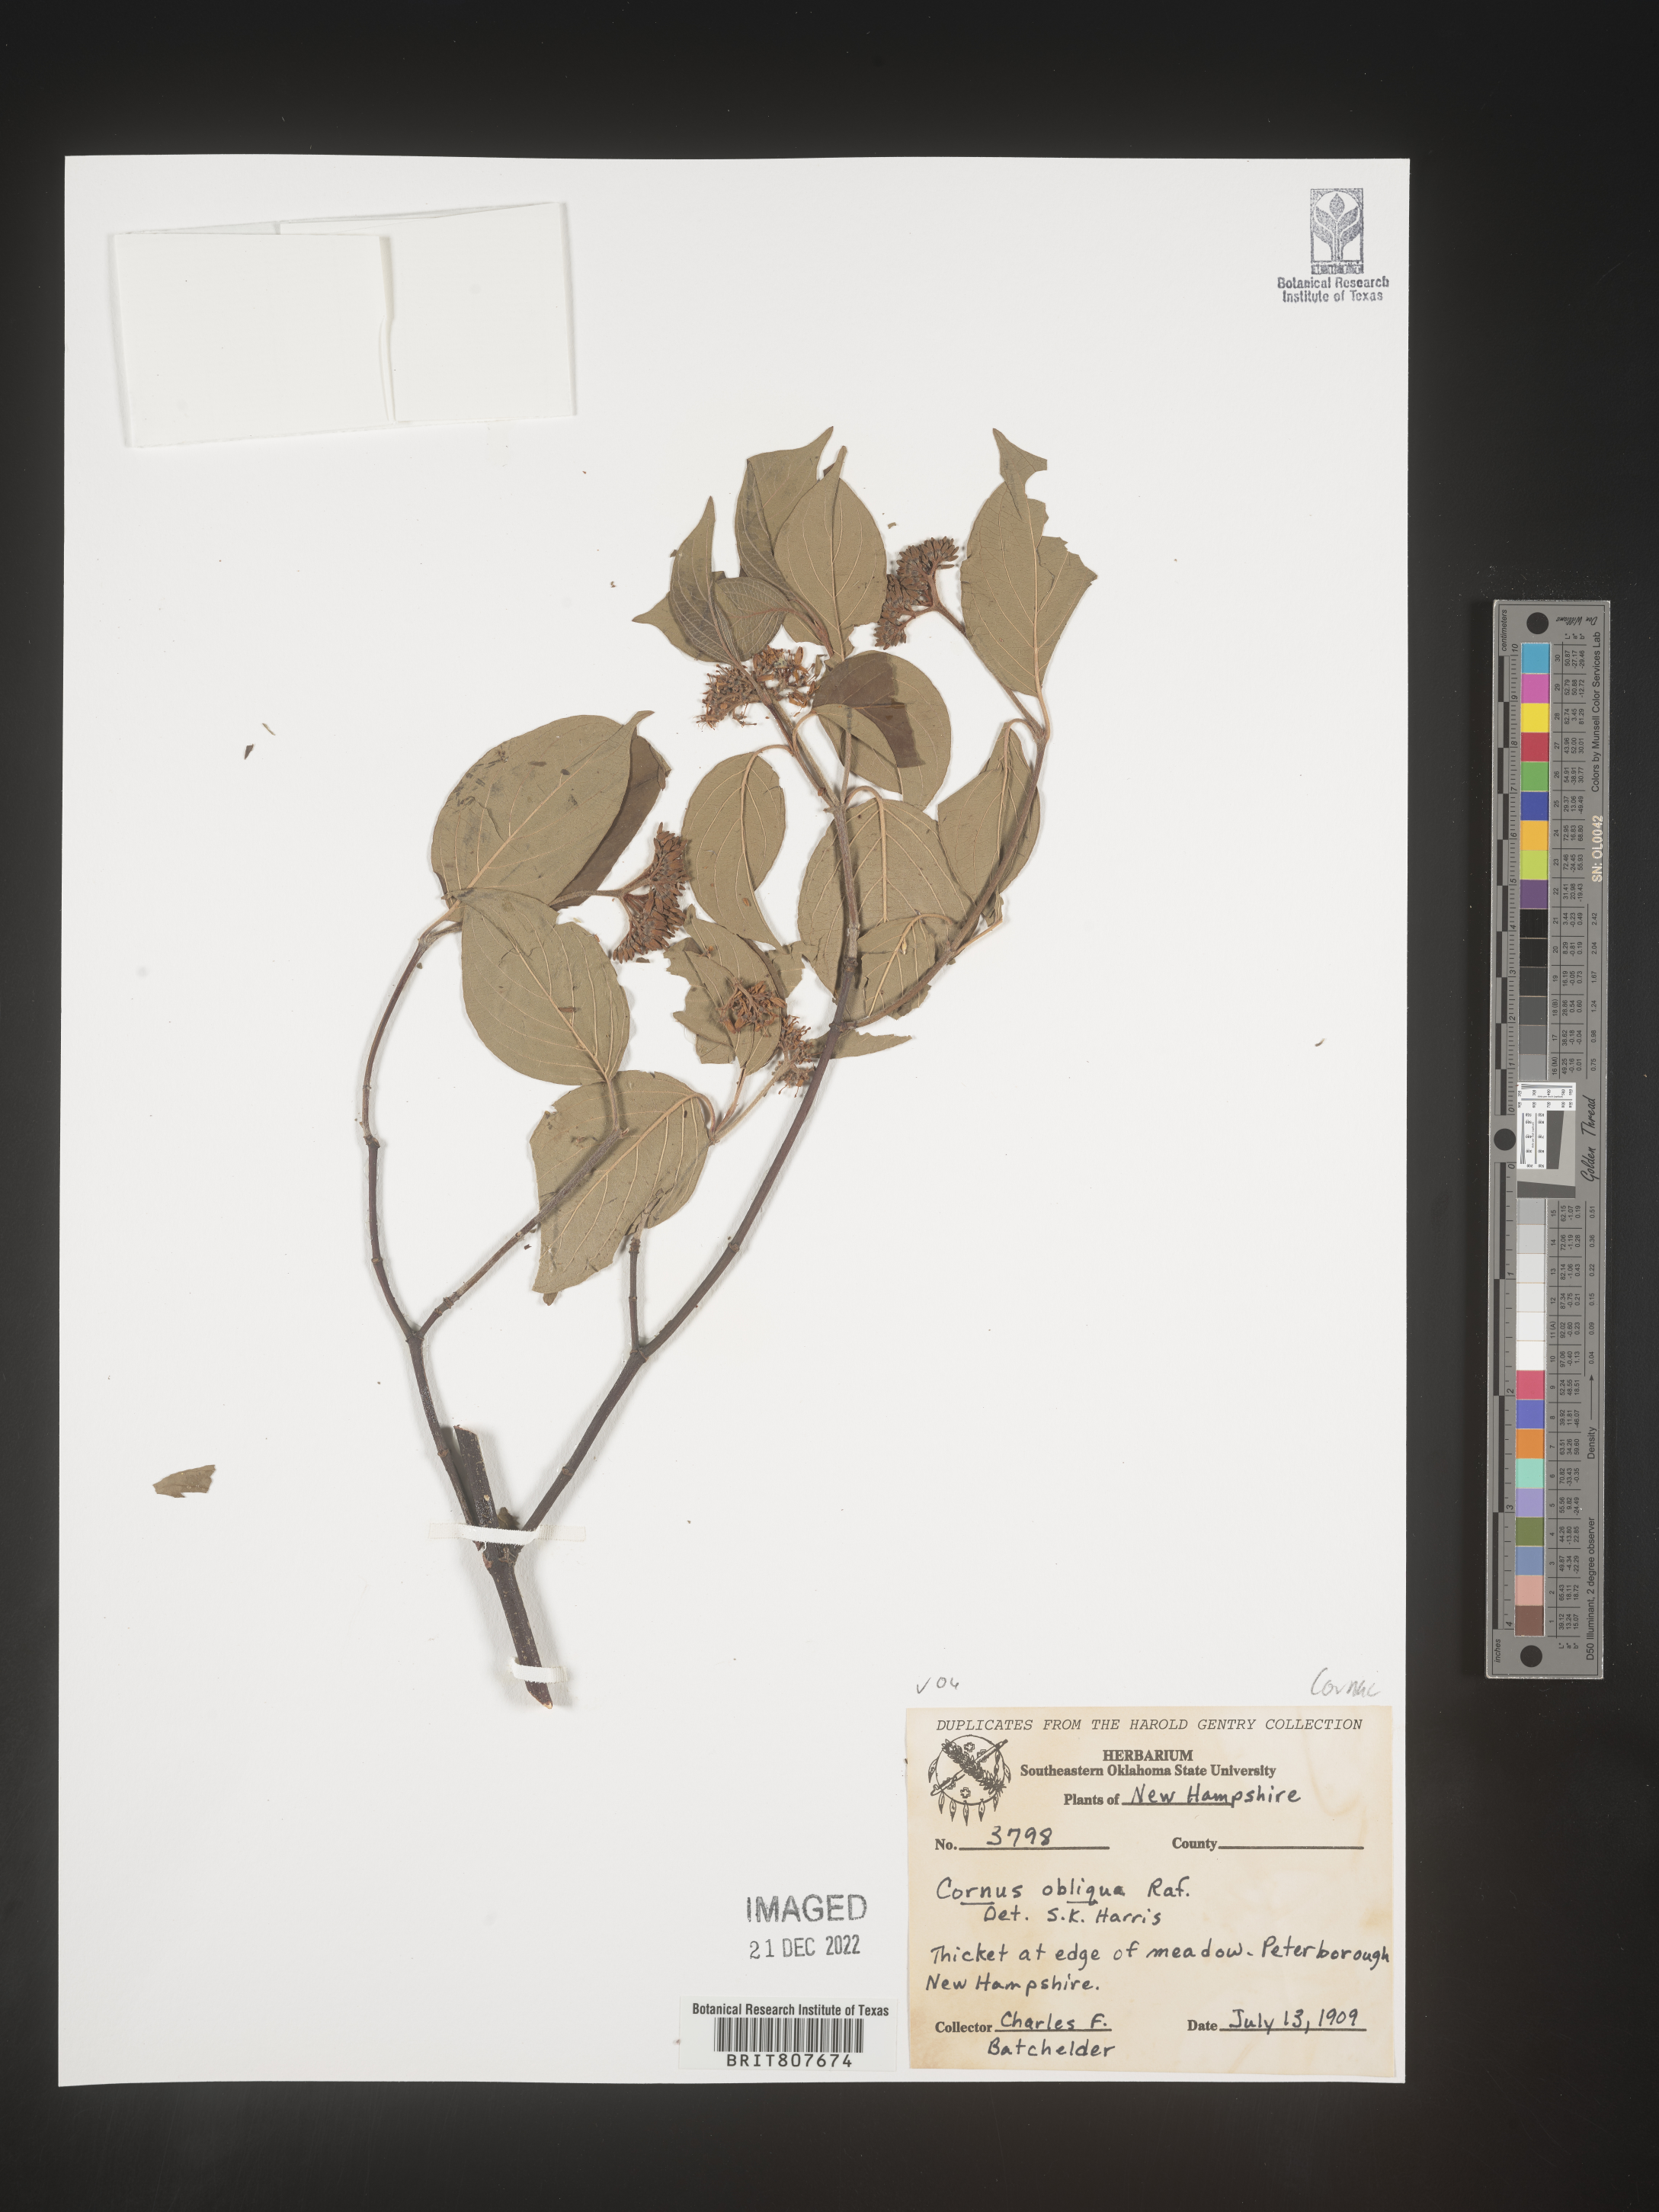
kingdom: Plantae
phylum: Tracheophyta
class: Magnoliopsida
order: Cornales
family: Cornaceae
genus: Cornus
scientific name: Cornus obliqua
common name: Pale dogwood
